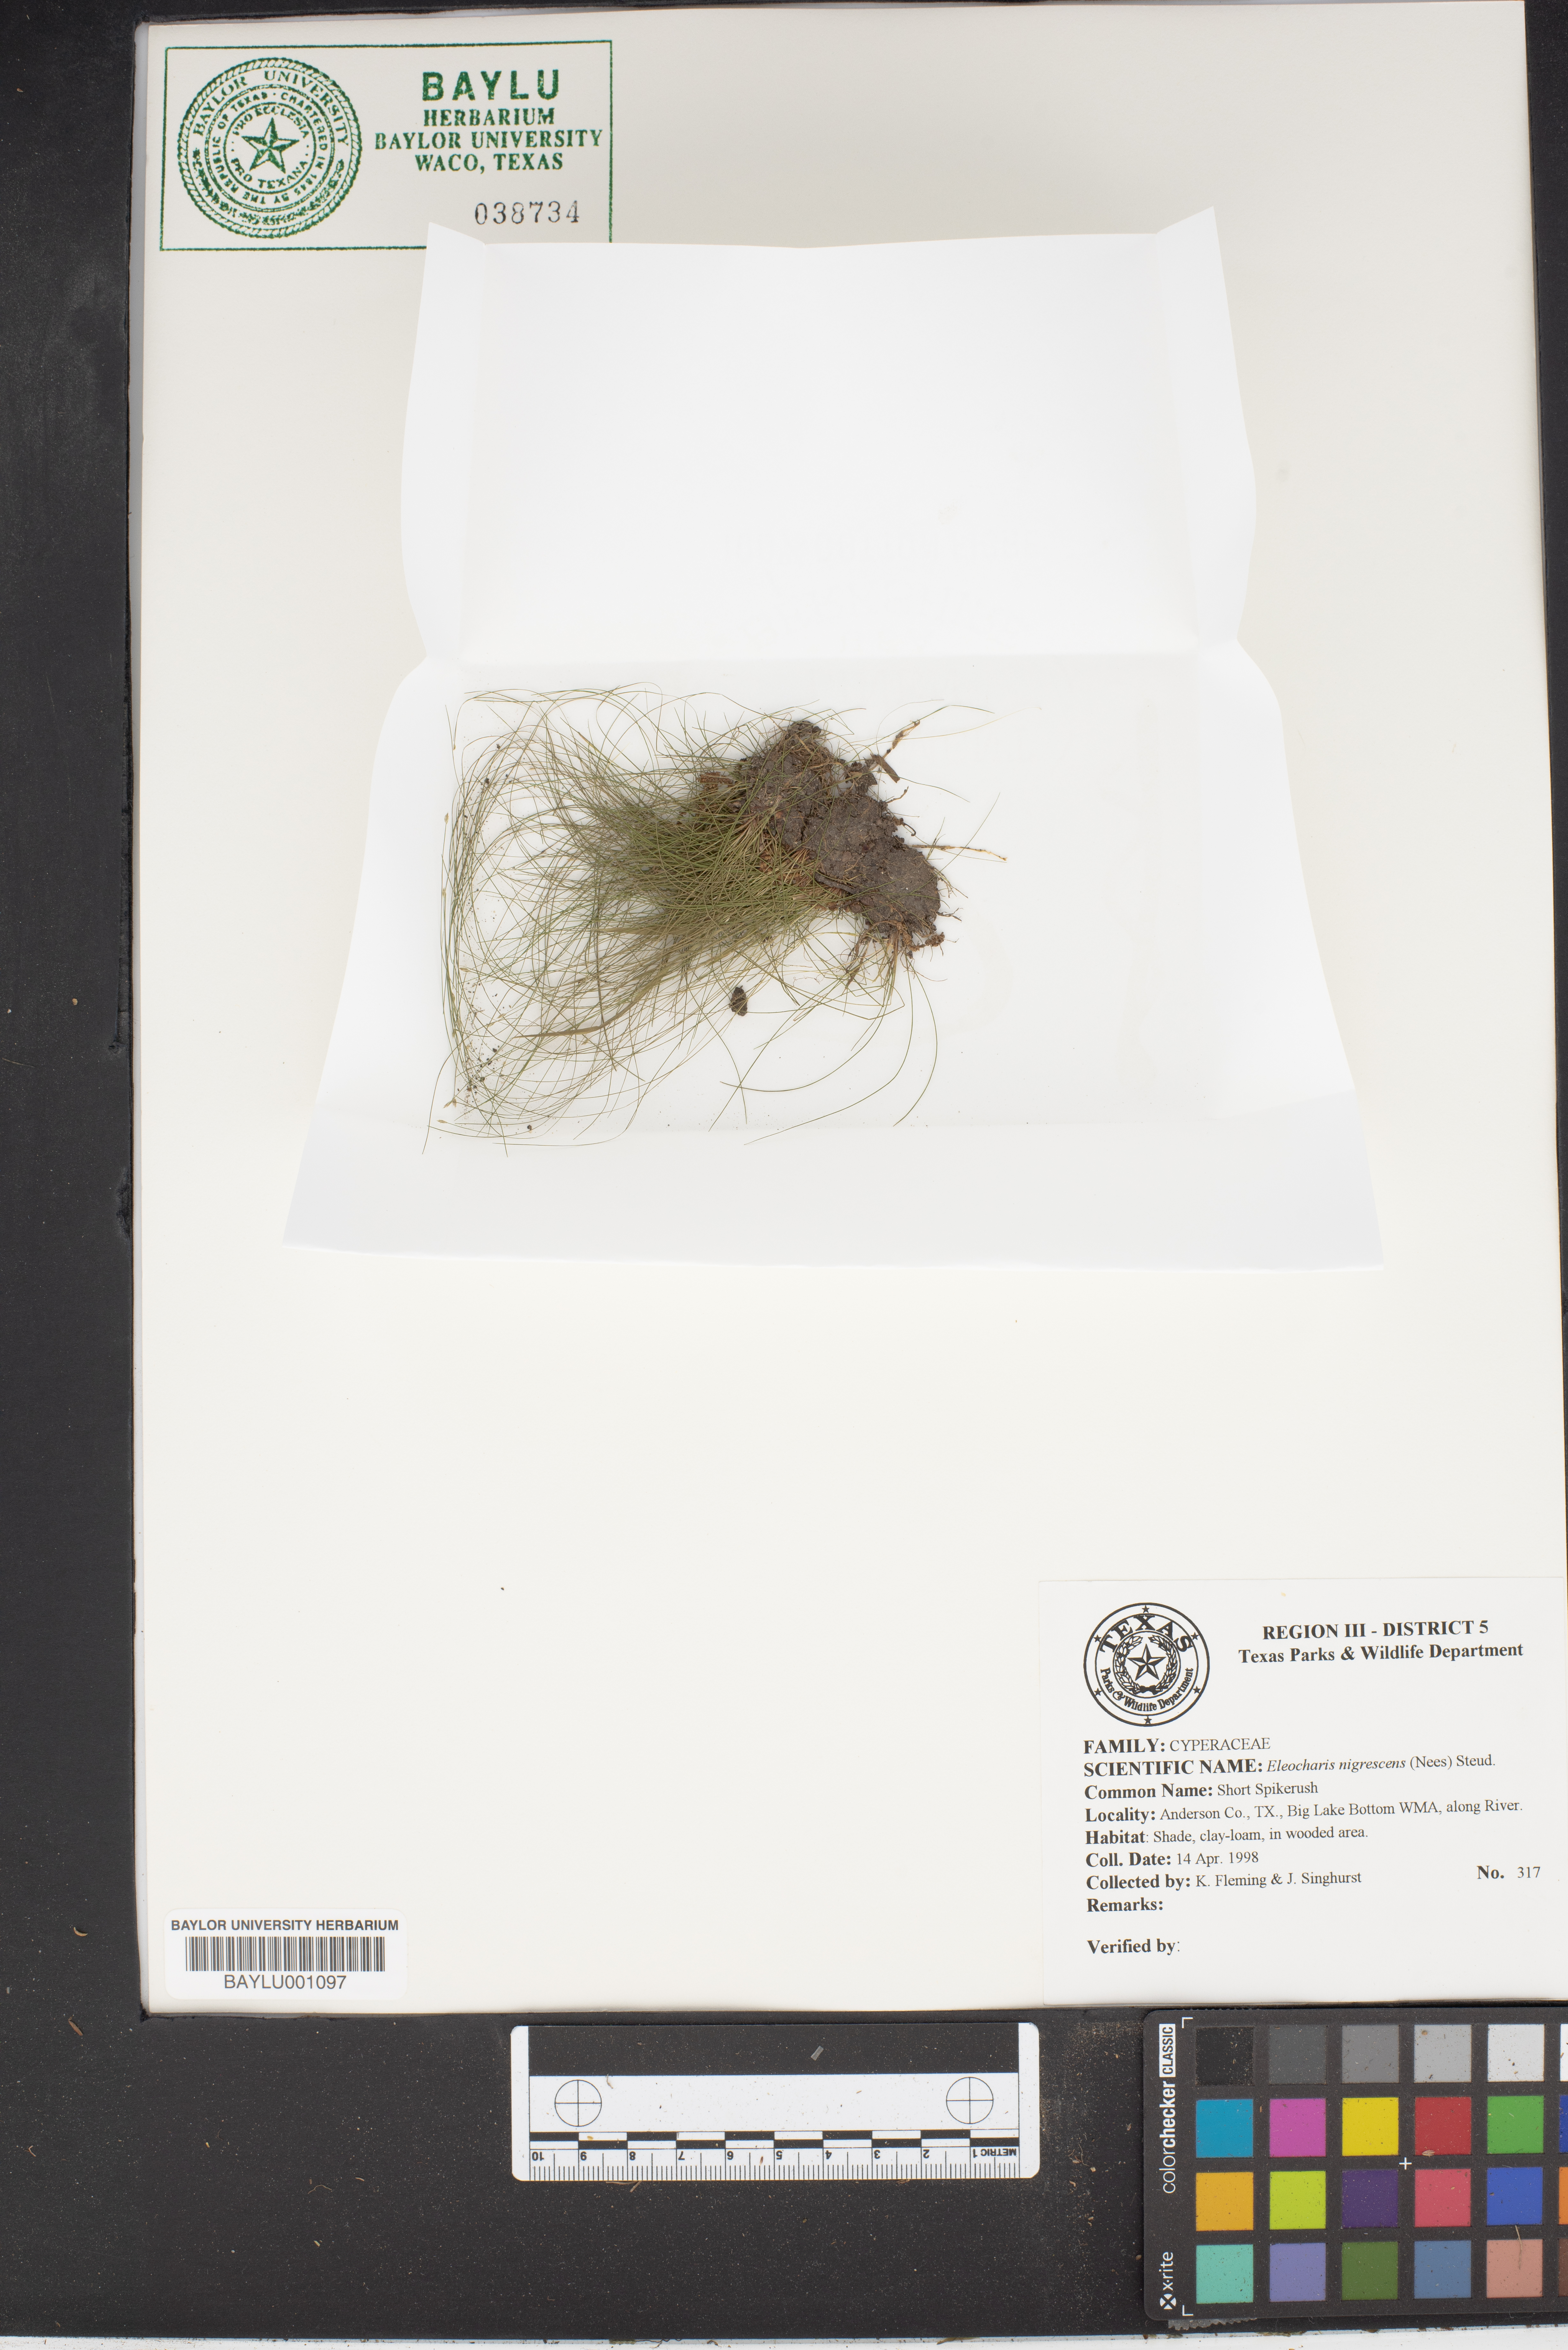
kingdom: Plantae
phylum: Tracheophyta
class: Liliopsida
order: Poales
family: Cyperaceae
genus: Eleocharis
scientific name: Eleocharis nigrescens
